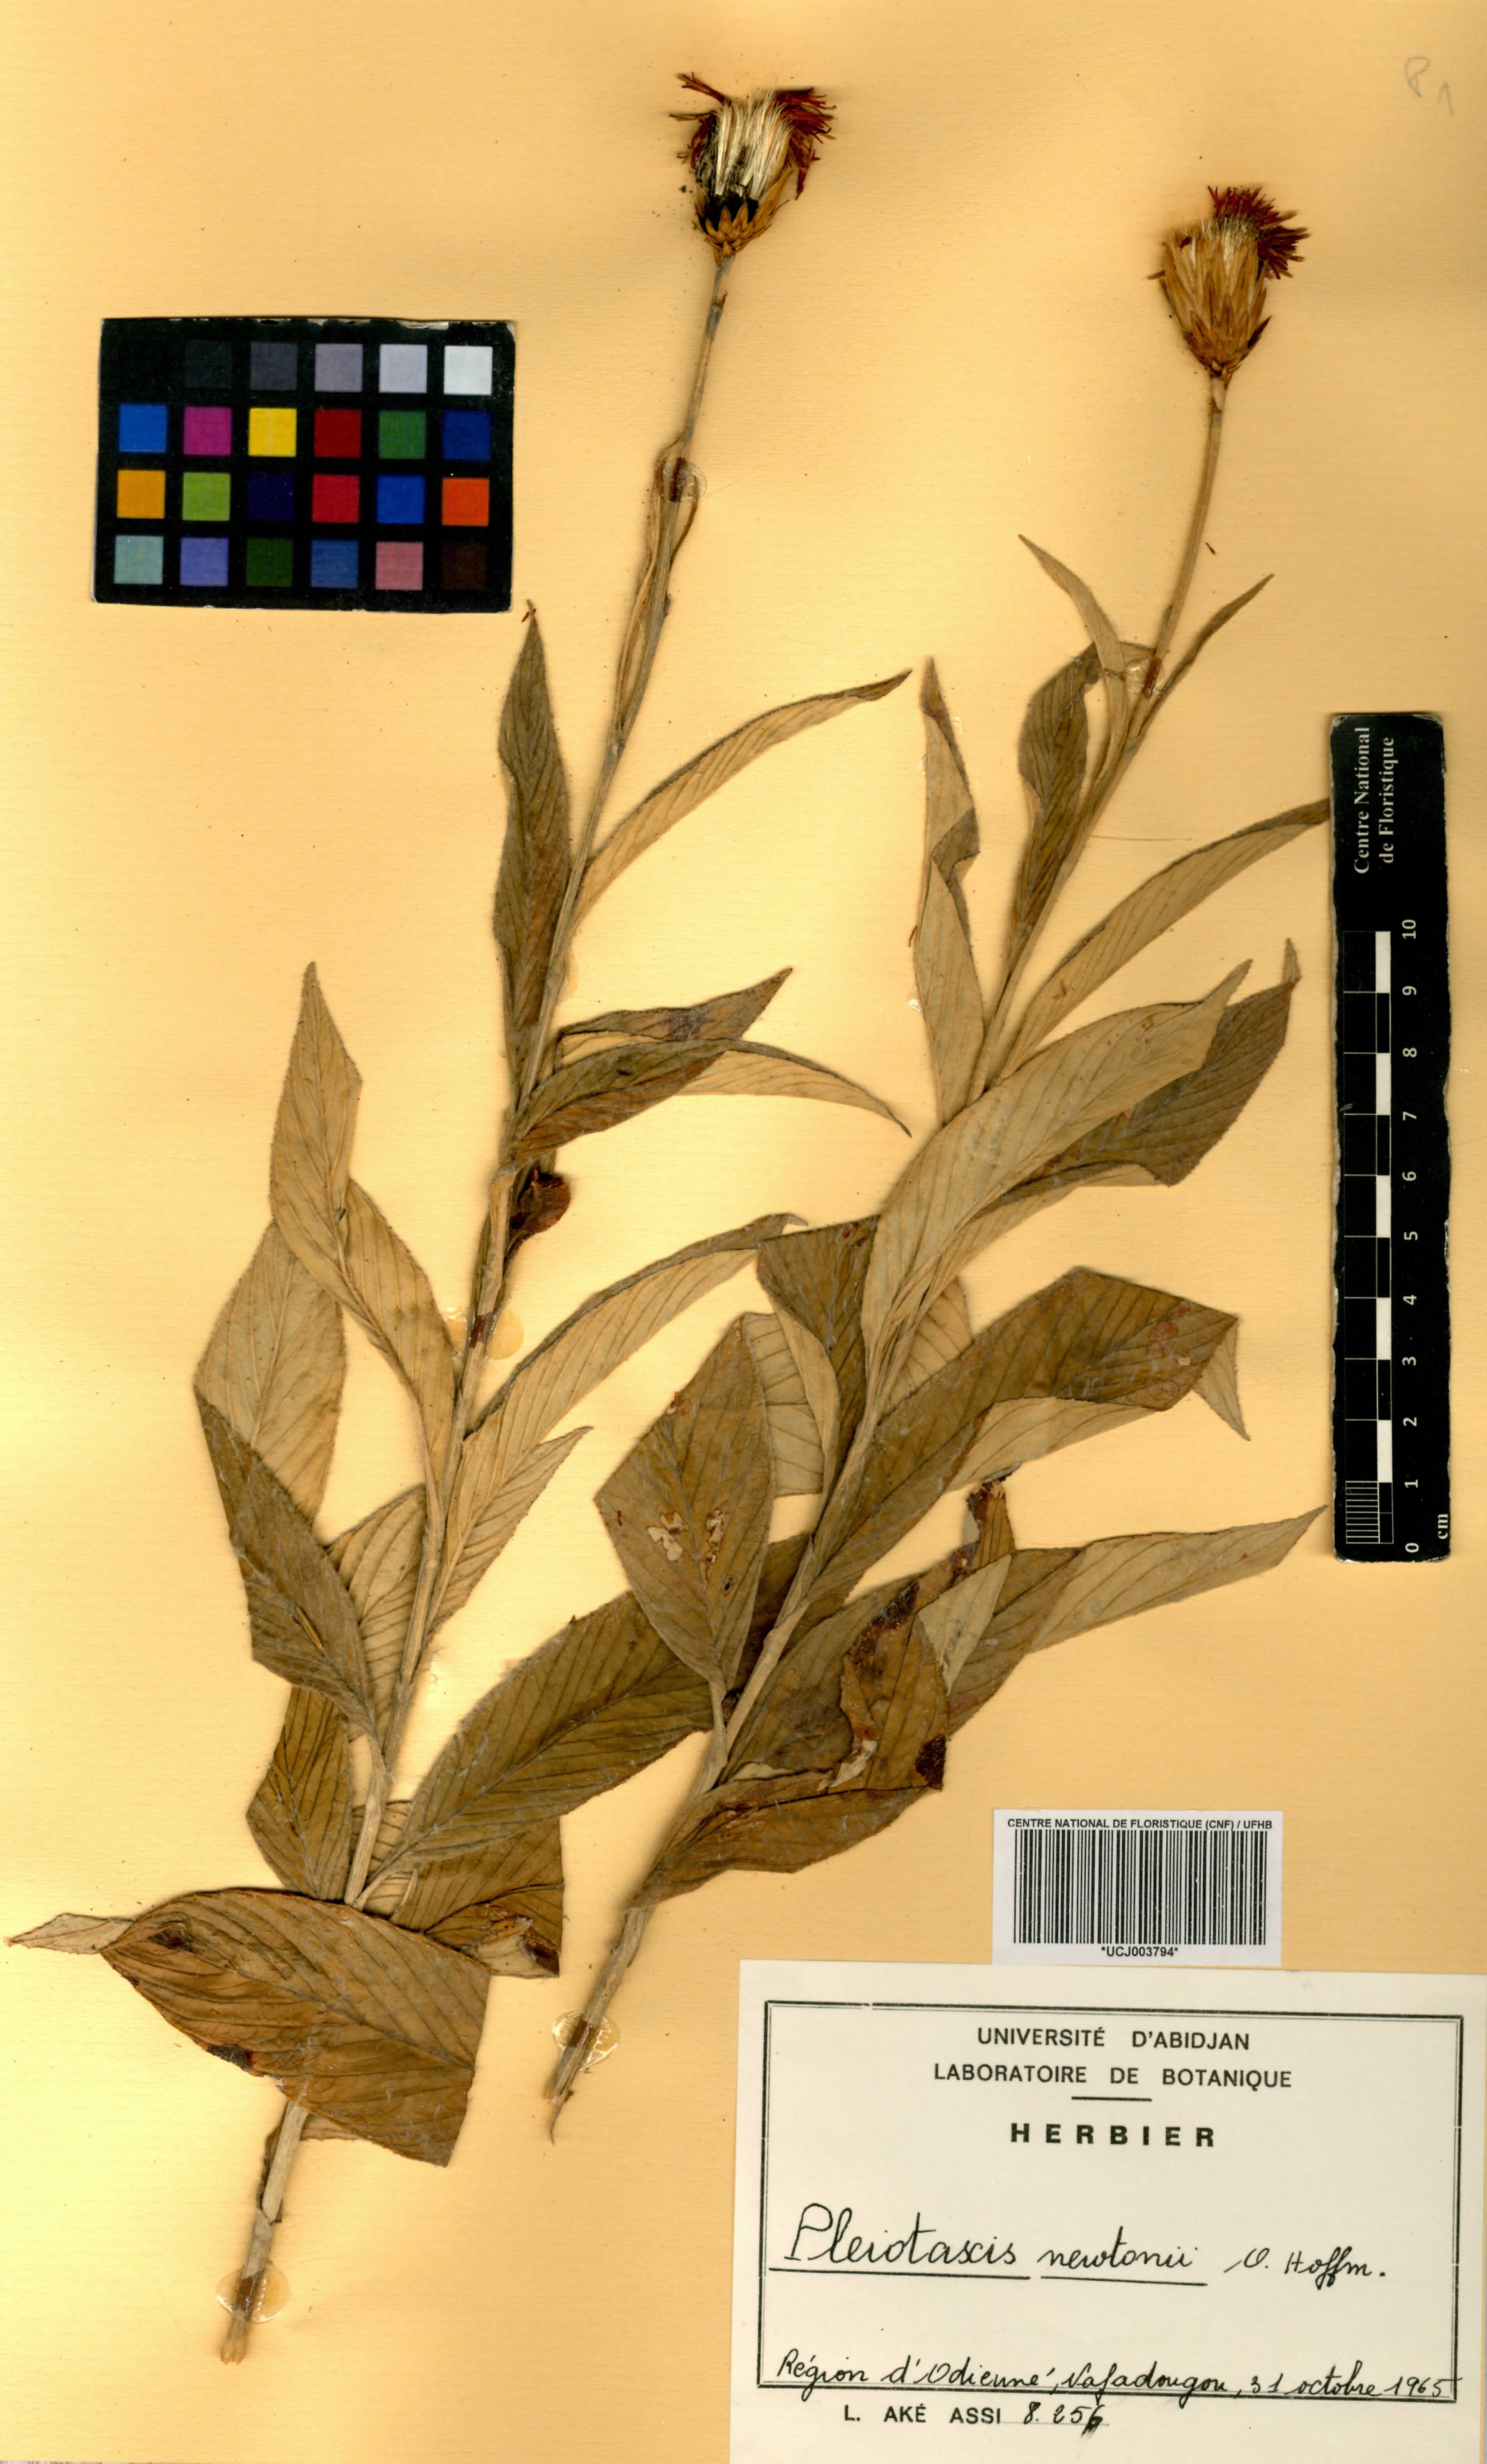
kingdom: Plantae
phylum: Tracheophyta
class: Magnoliopsida
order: Asterales
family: Asteraceae
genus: Pleiotaxis
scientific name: Pleiotaxis newtonii
